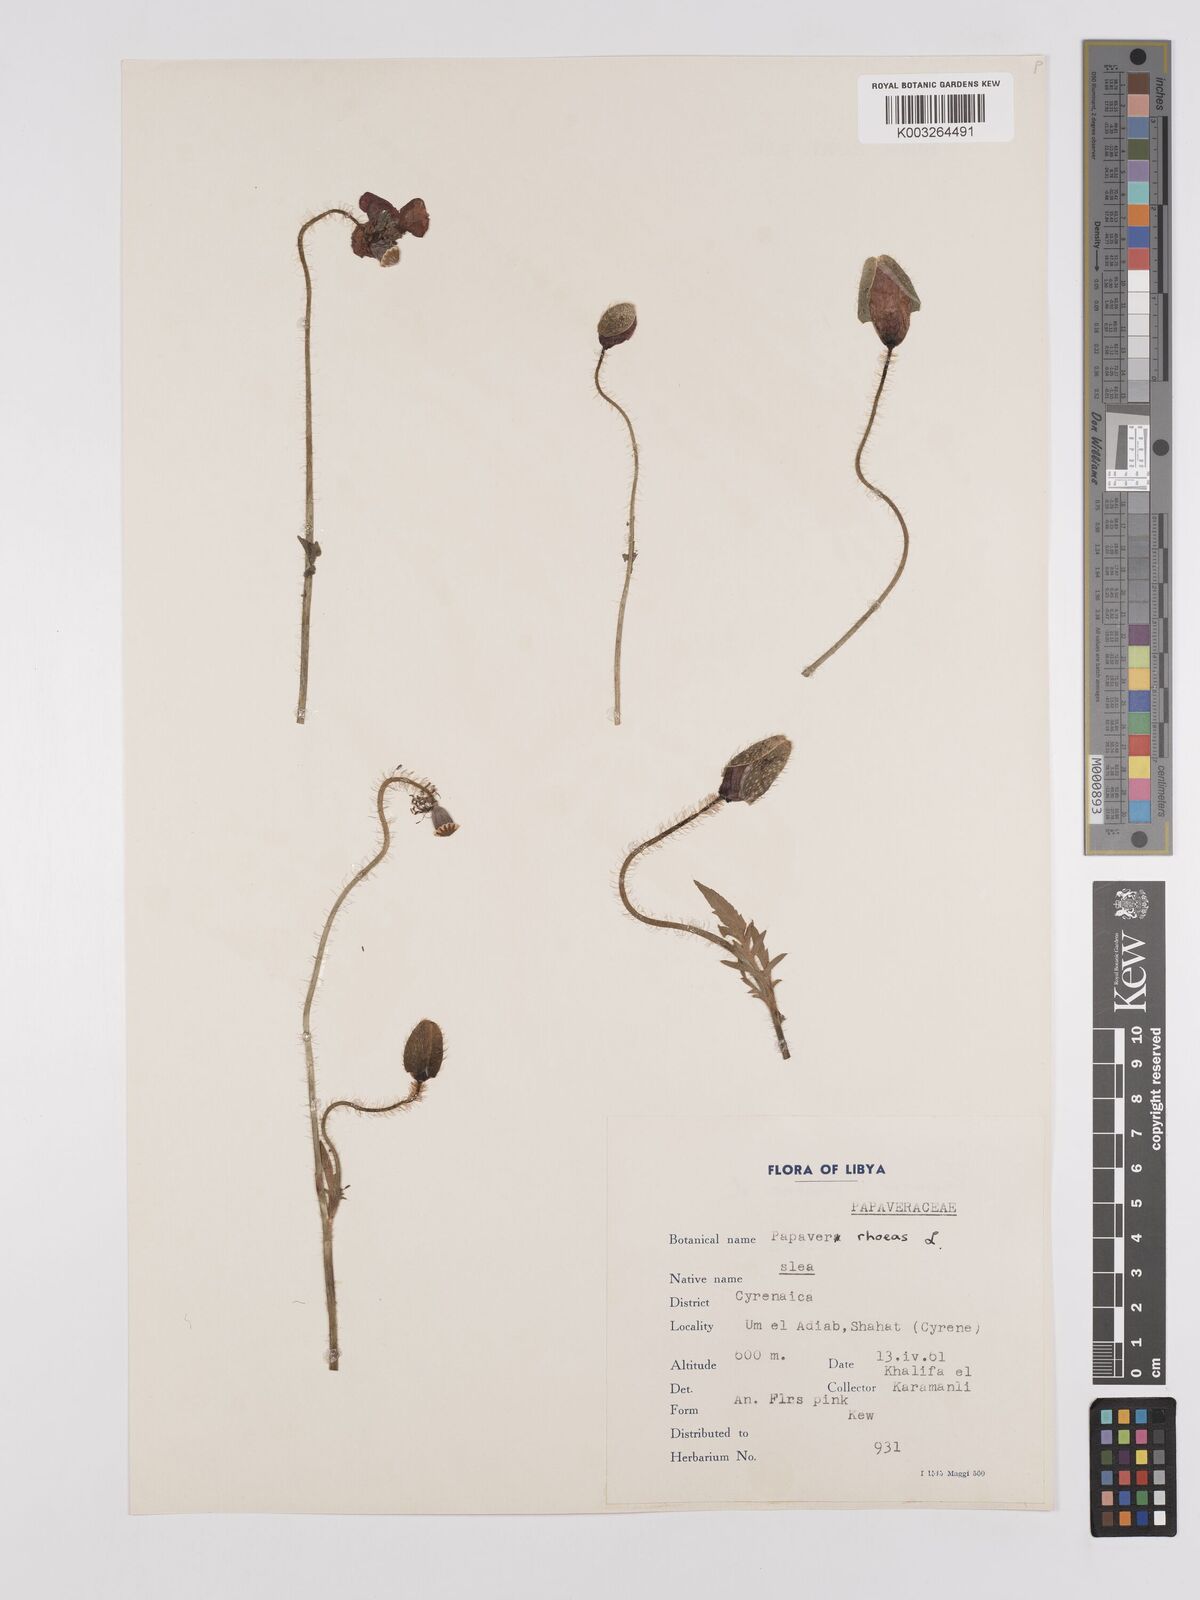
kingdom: Plantae
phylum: Tracheophyta
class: Magnoliopsida
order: Ranunculales
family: Papaveraceae
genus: Papaver
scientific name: Papaver rhoeas
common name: Corn poppy
